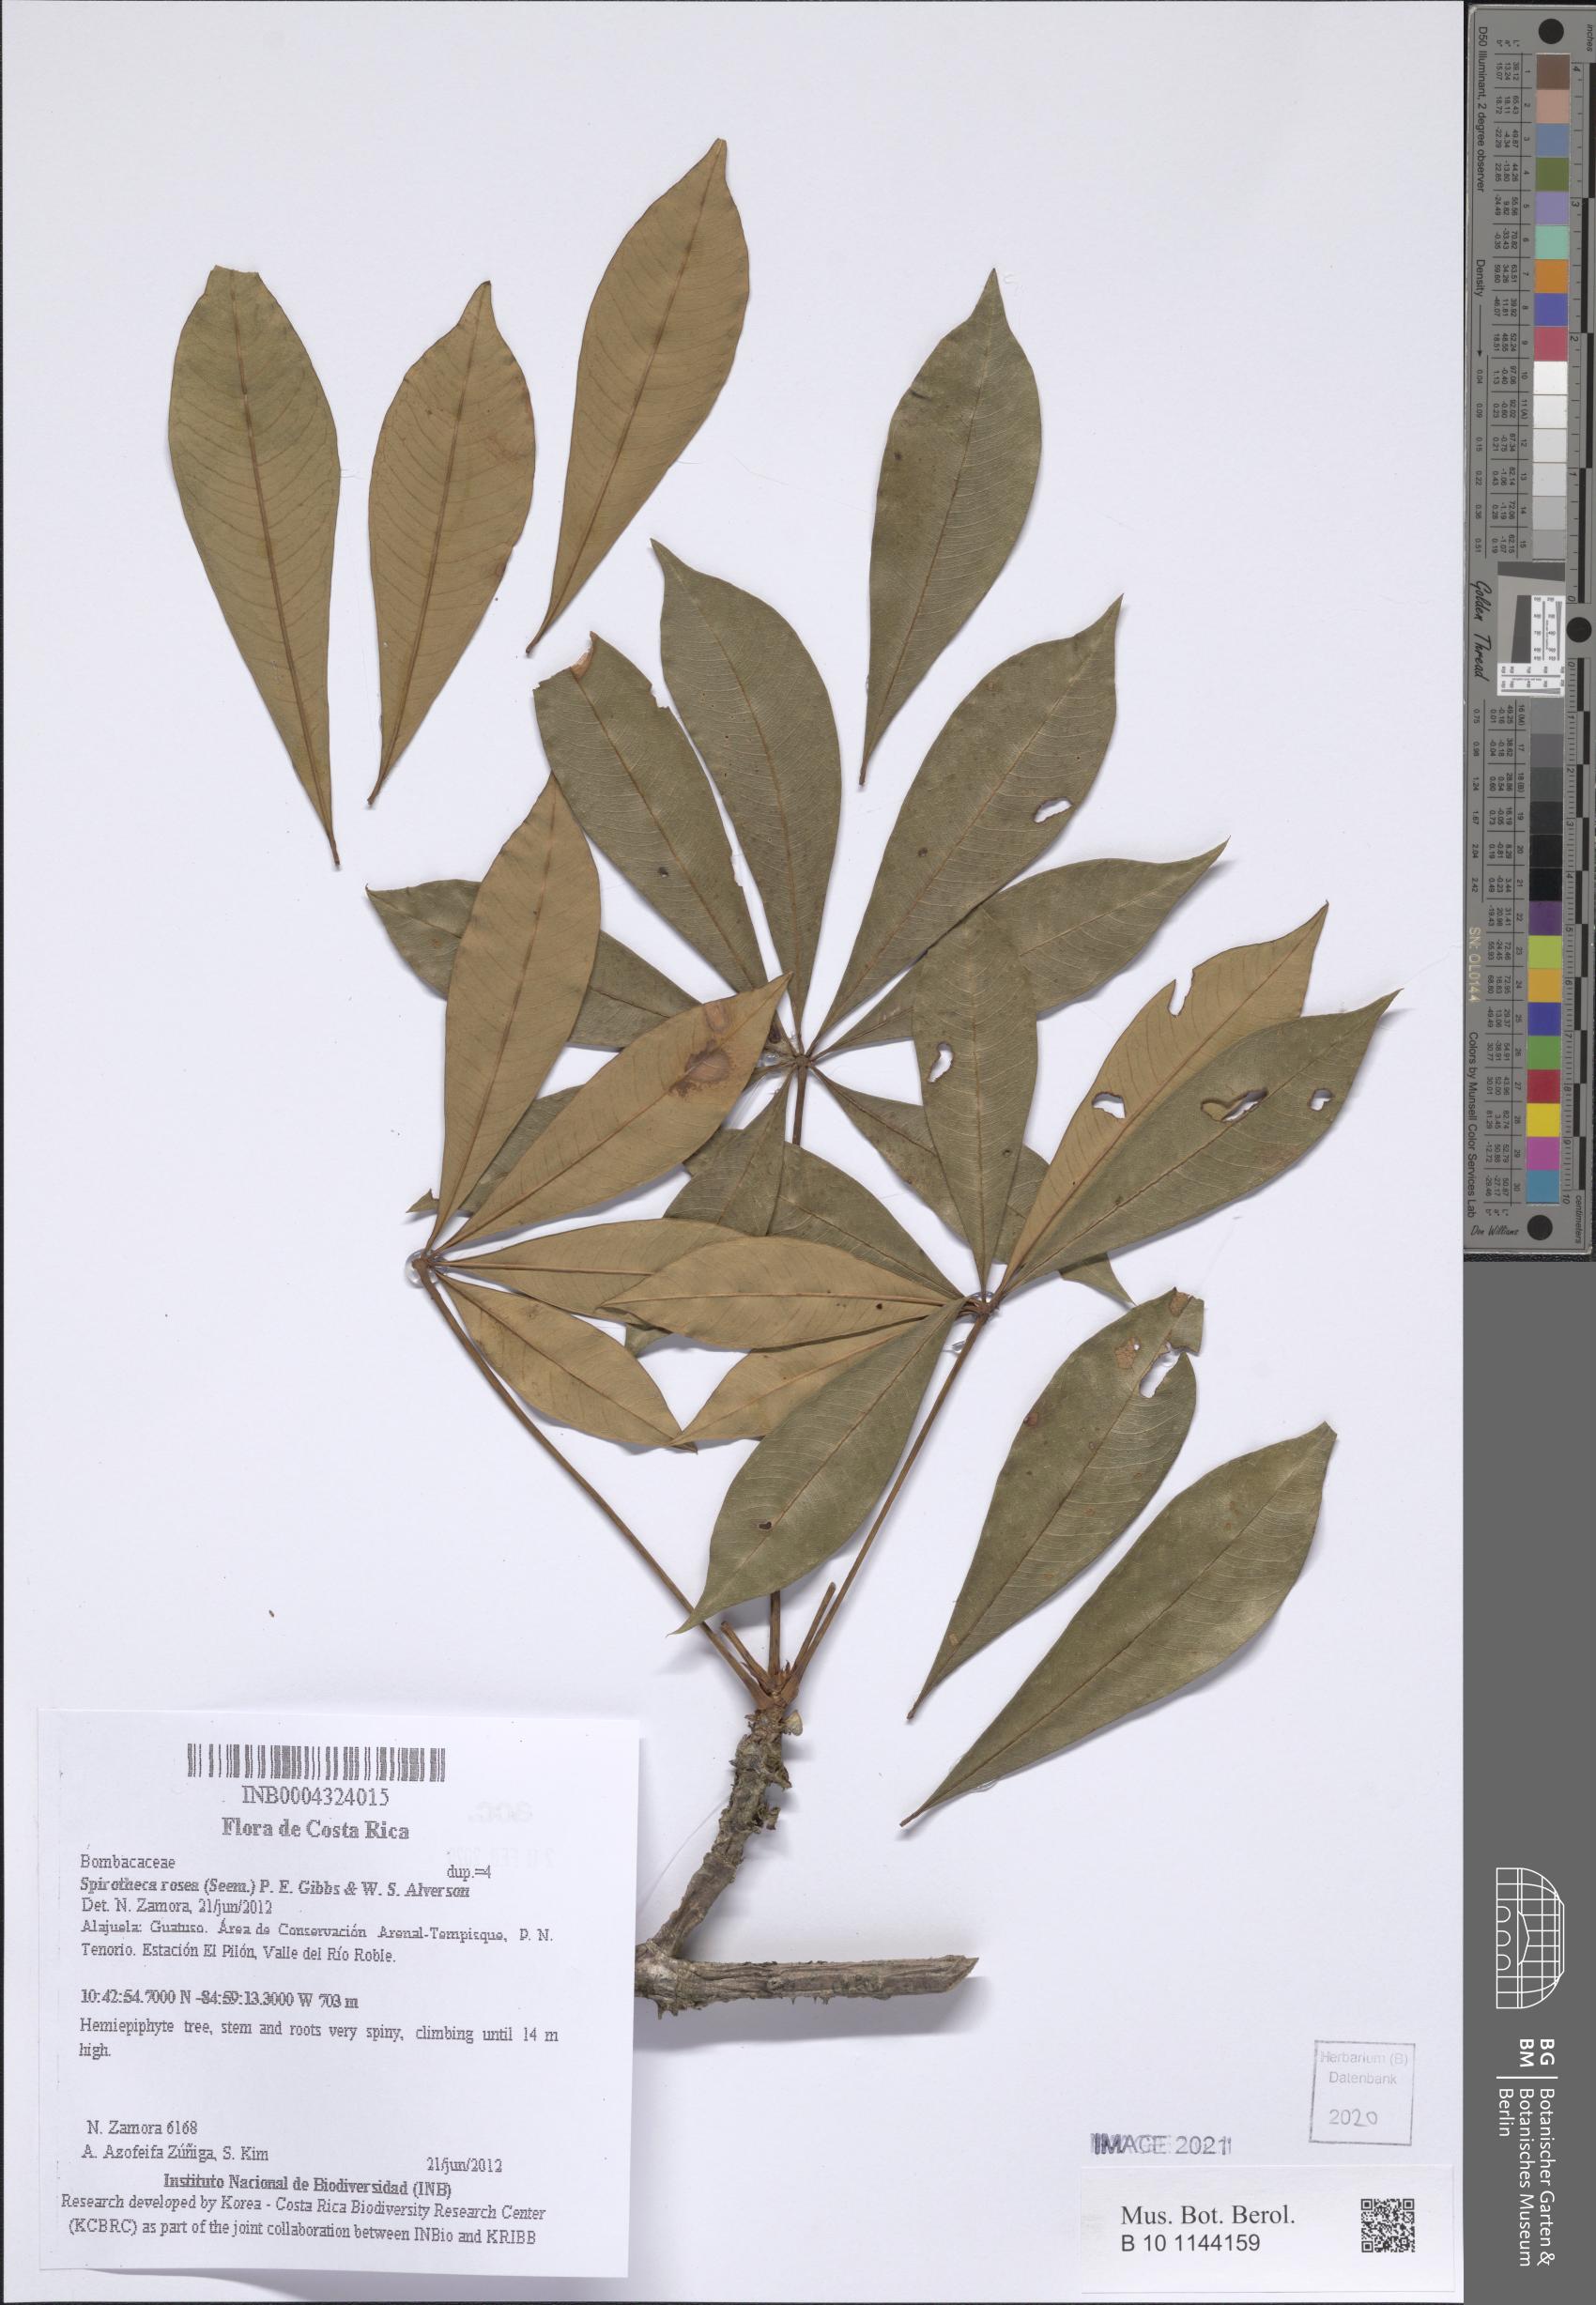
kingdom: Plantae
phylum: Tracheophyta
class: Magnoliopsida
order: Malvales
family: Malvaceae
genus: Spirotheca
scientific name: Spirotheca rosea
